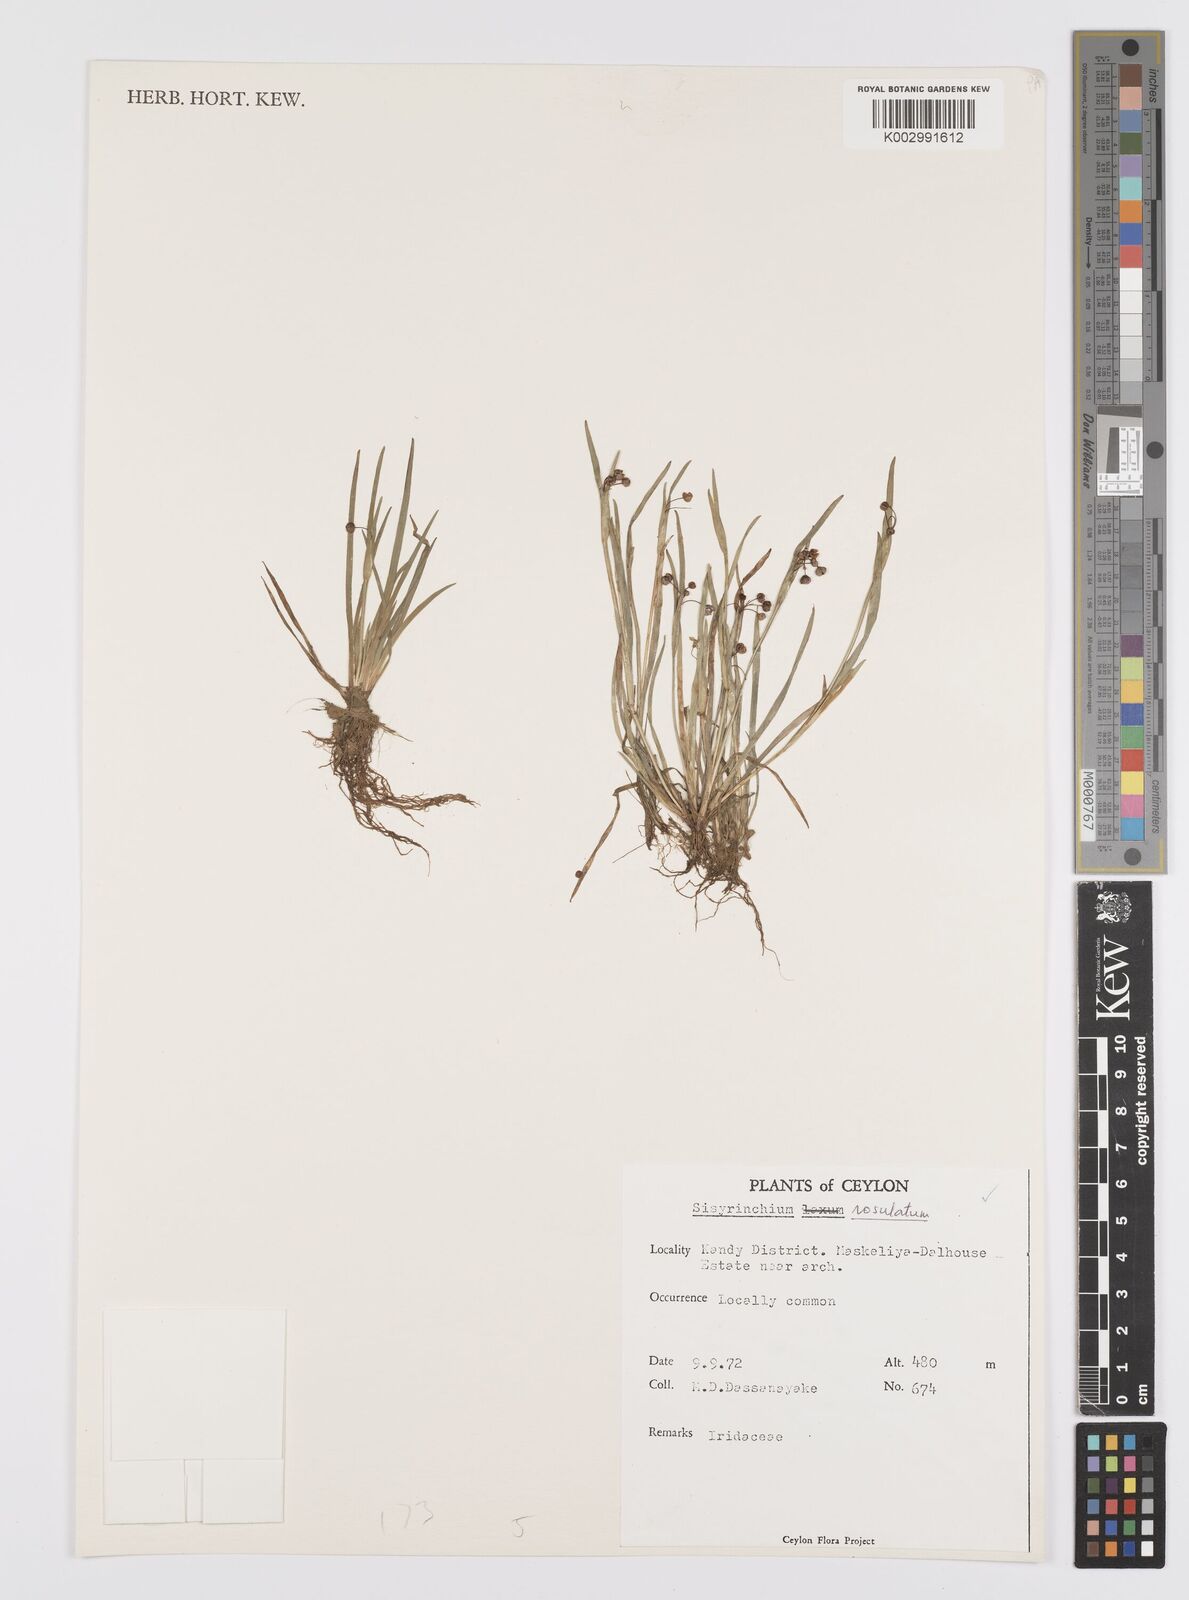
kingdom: Plantae
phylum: Tracheophyta
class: Liliopsida
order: Asparagales
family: Iridaceae
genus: Sisyrinchium
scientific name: Sisyrinchium rosulatum
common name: Annual blue-eyed grass
